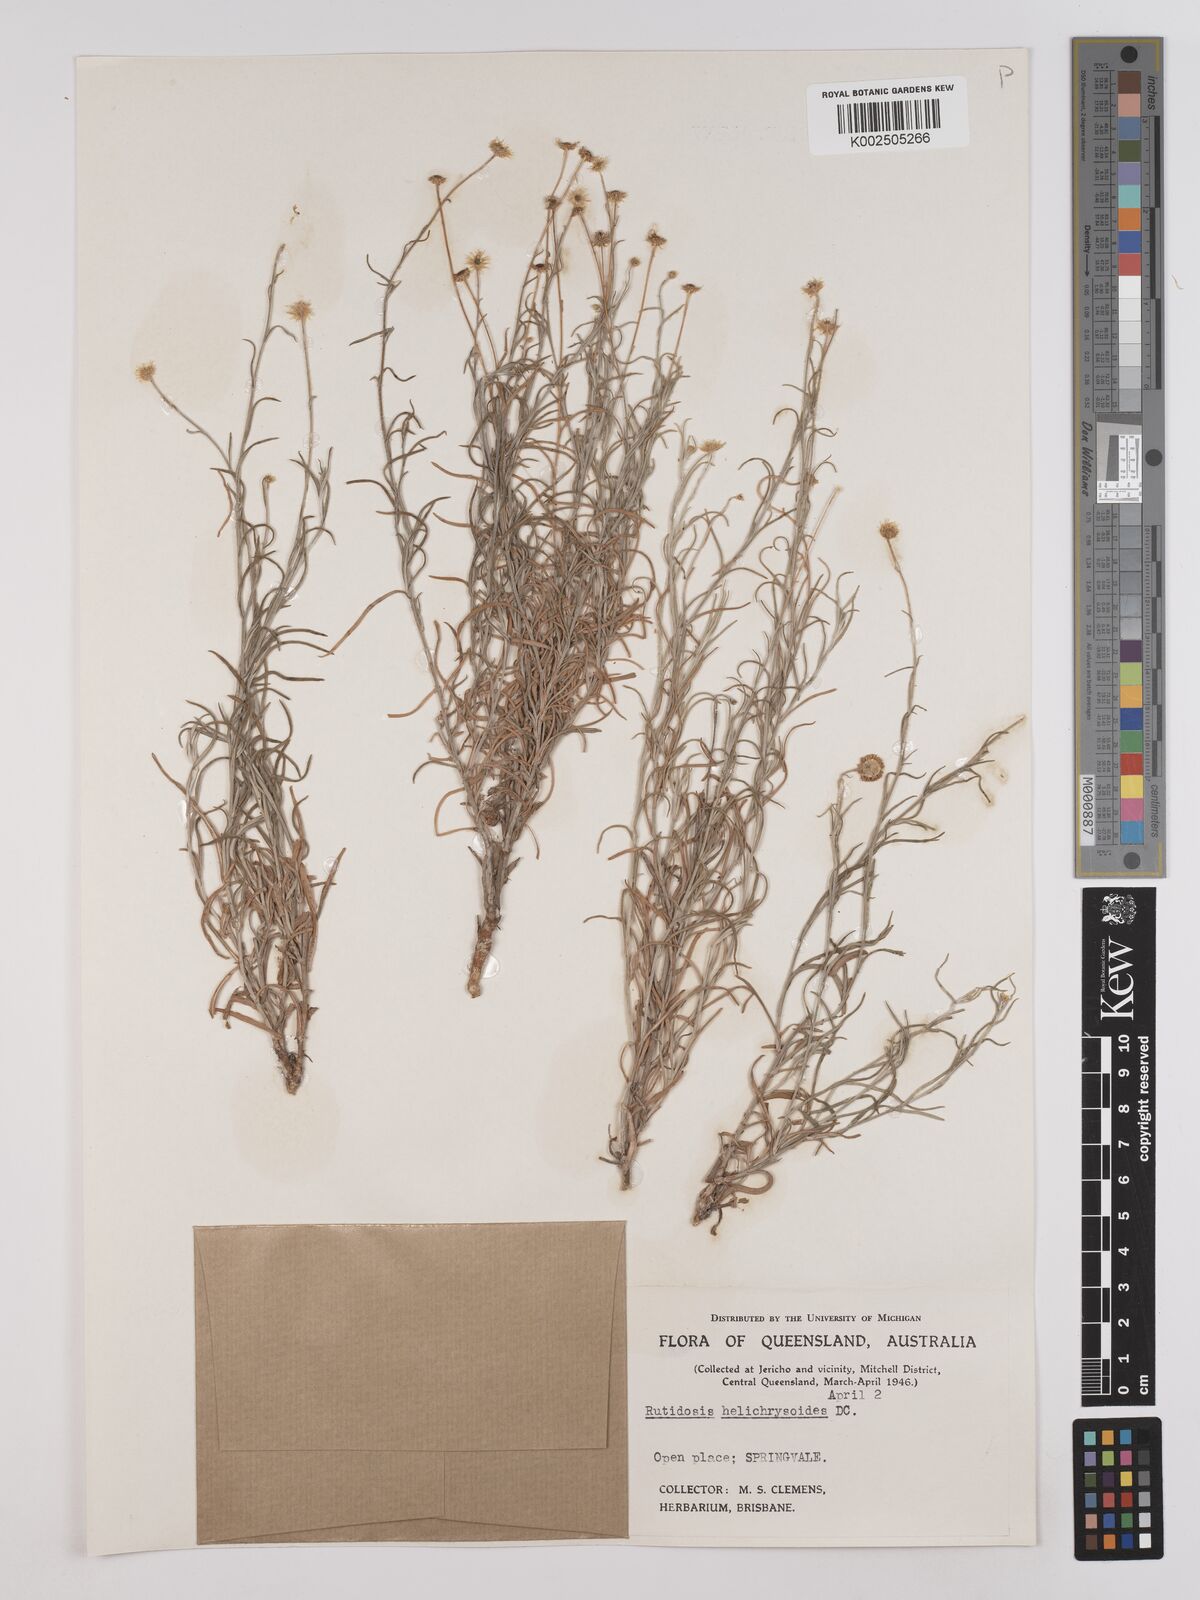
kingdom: Plantae
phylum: Tracheophyta
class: Magnoliopsida
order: Asterales
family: Asteraceae
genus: Rutidosis
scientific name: Rutidosis helichrysoides
